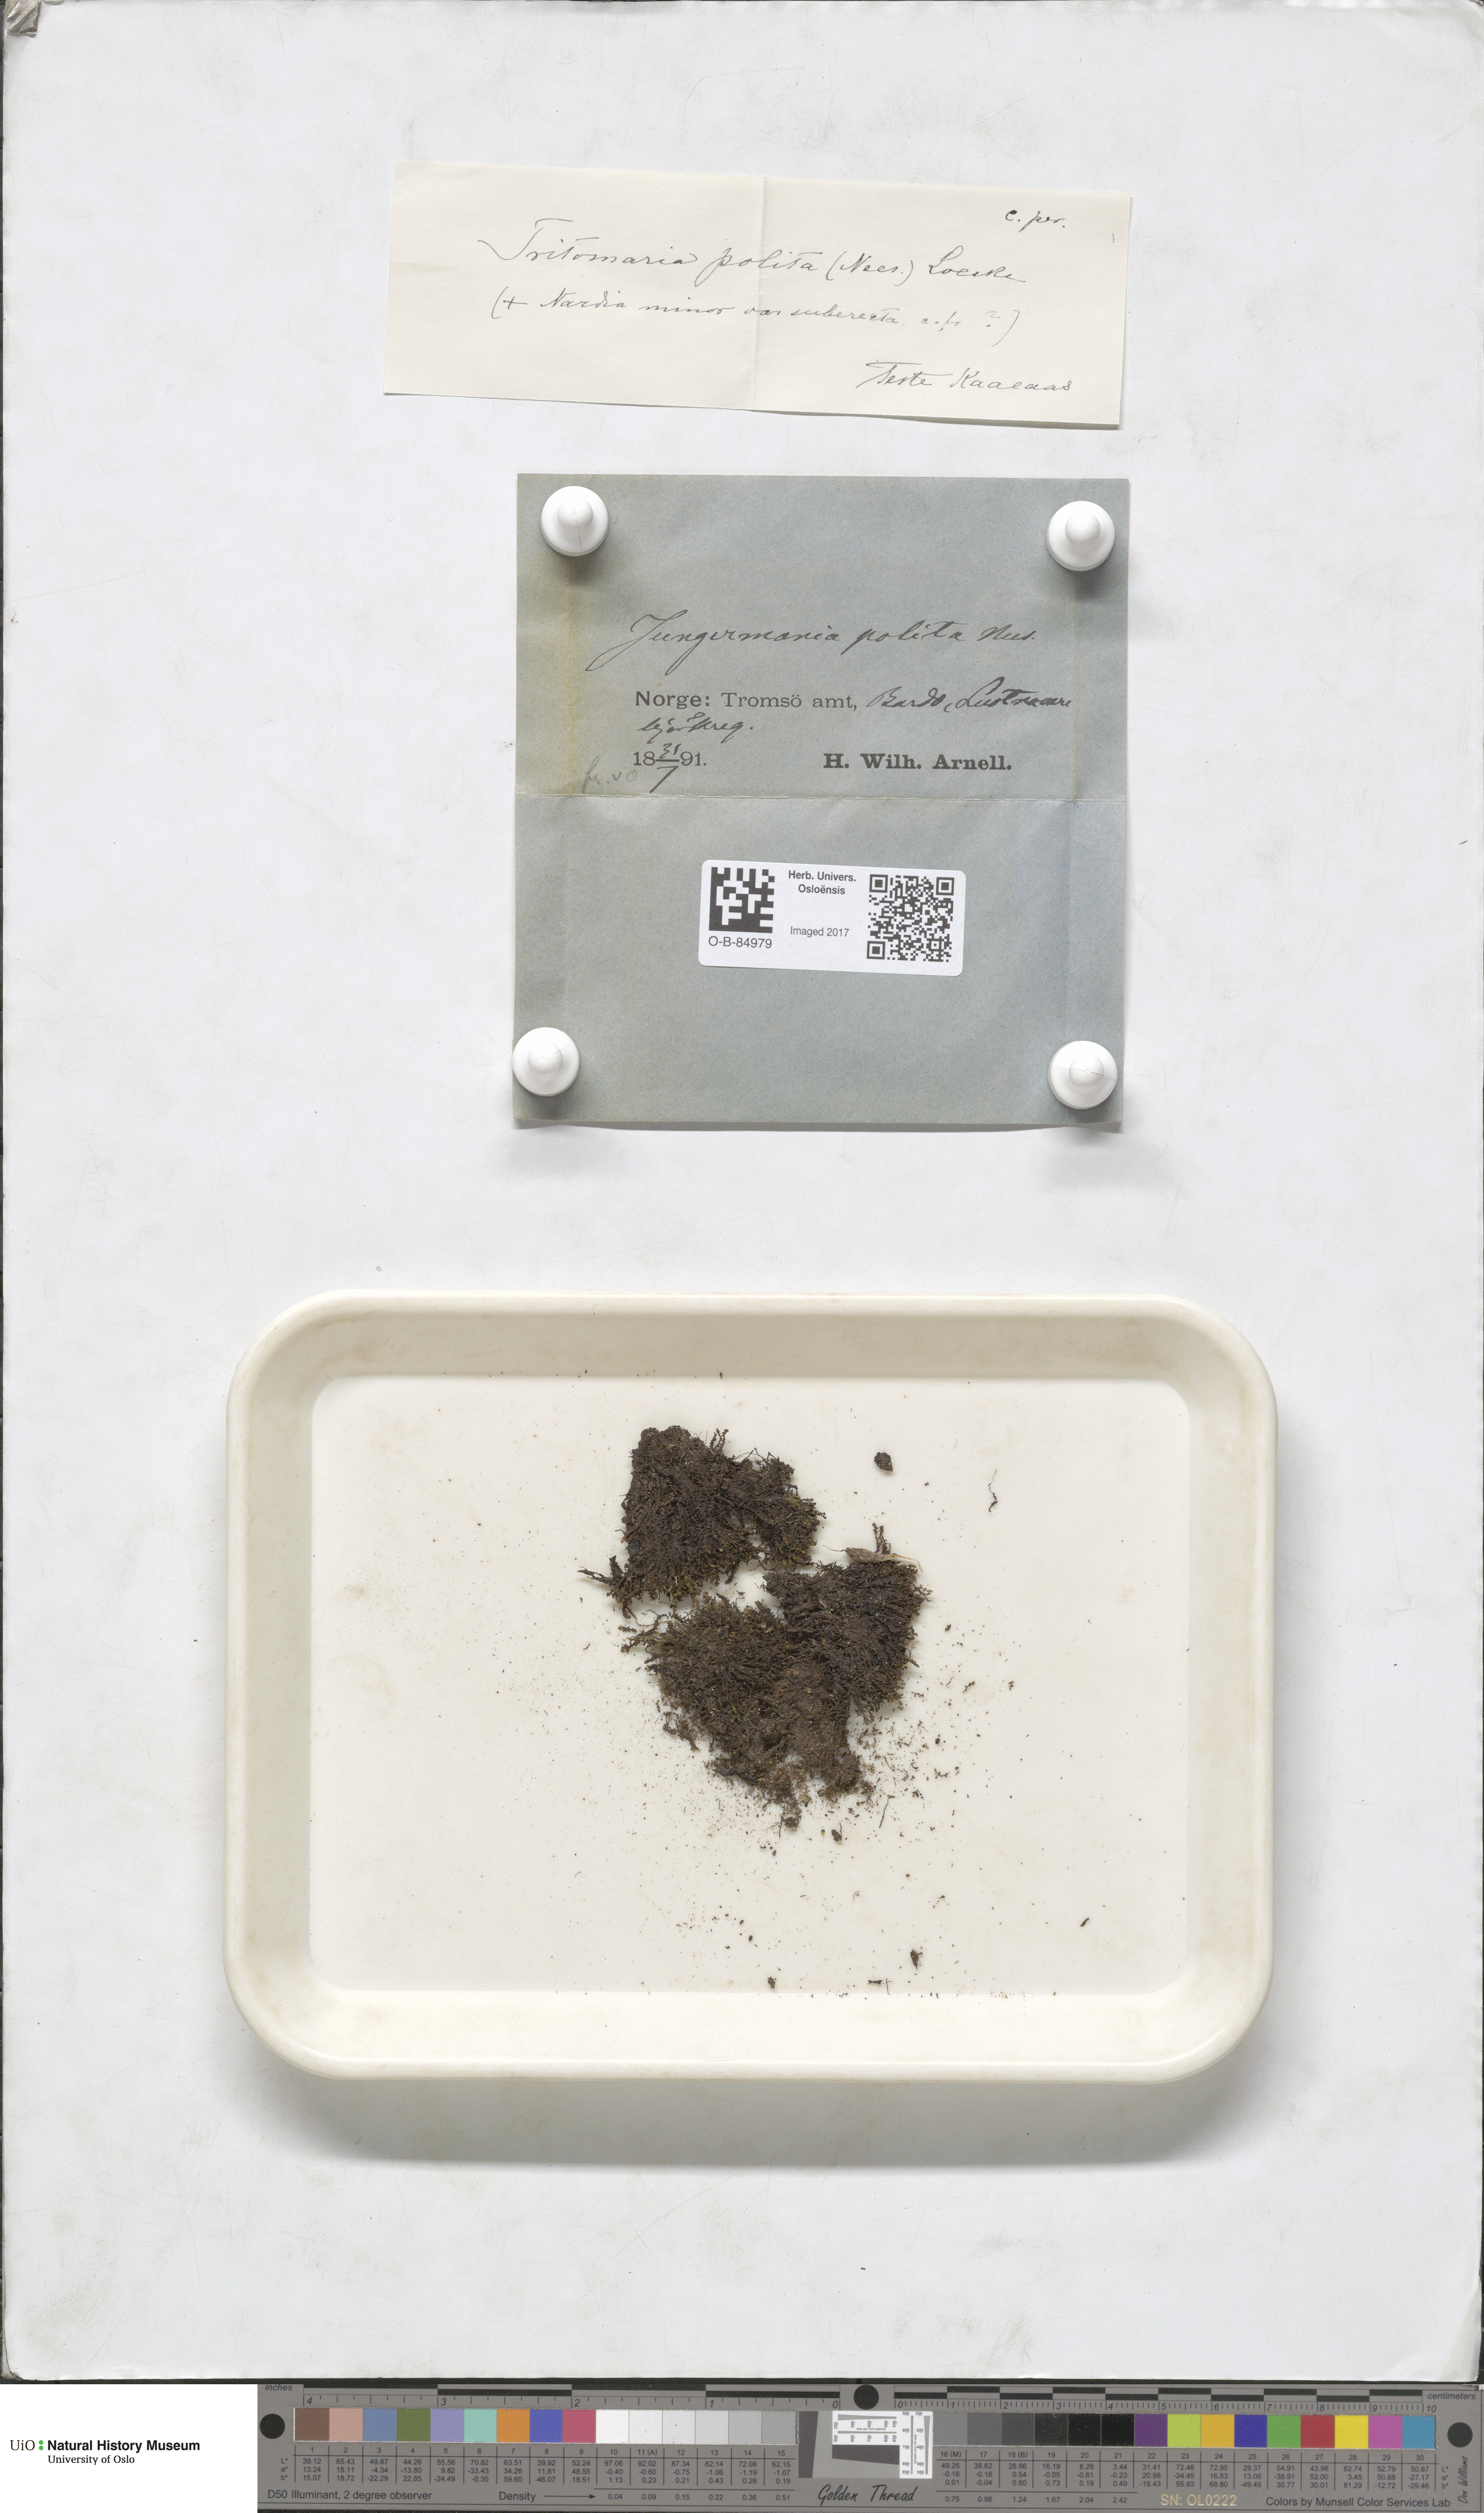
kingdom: Plantae
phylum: Marchantiophyta
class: Jungermanniopsida
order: Jungermanniales
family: Scapaniaceae
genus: Saccobasis
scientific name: Saccobasis polita
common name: Flush notchwort
